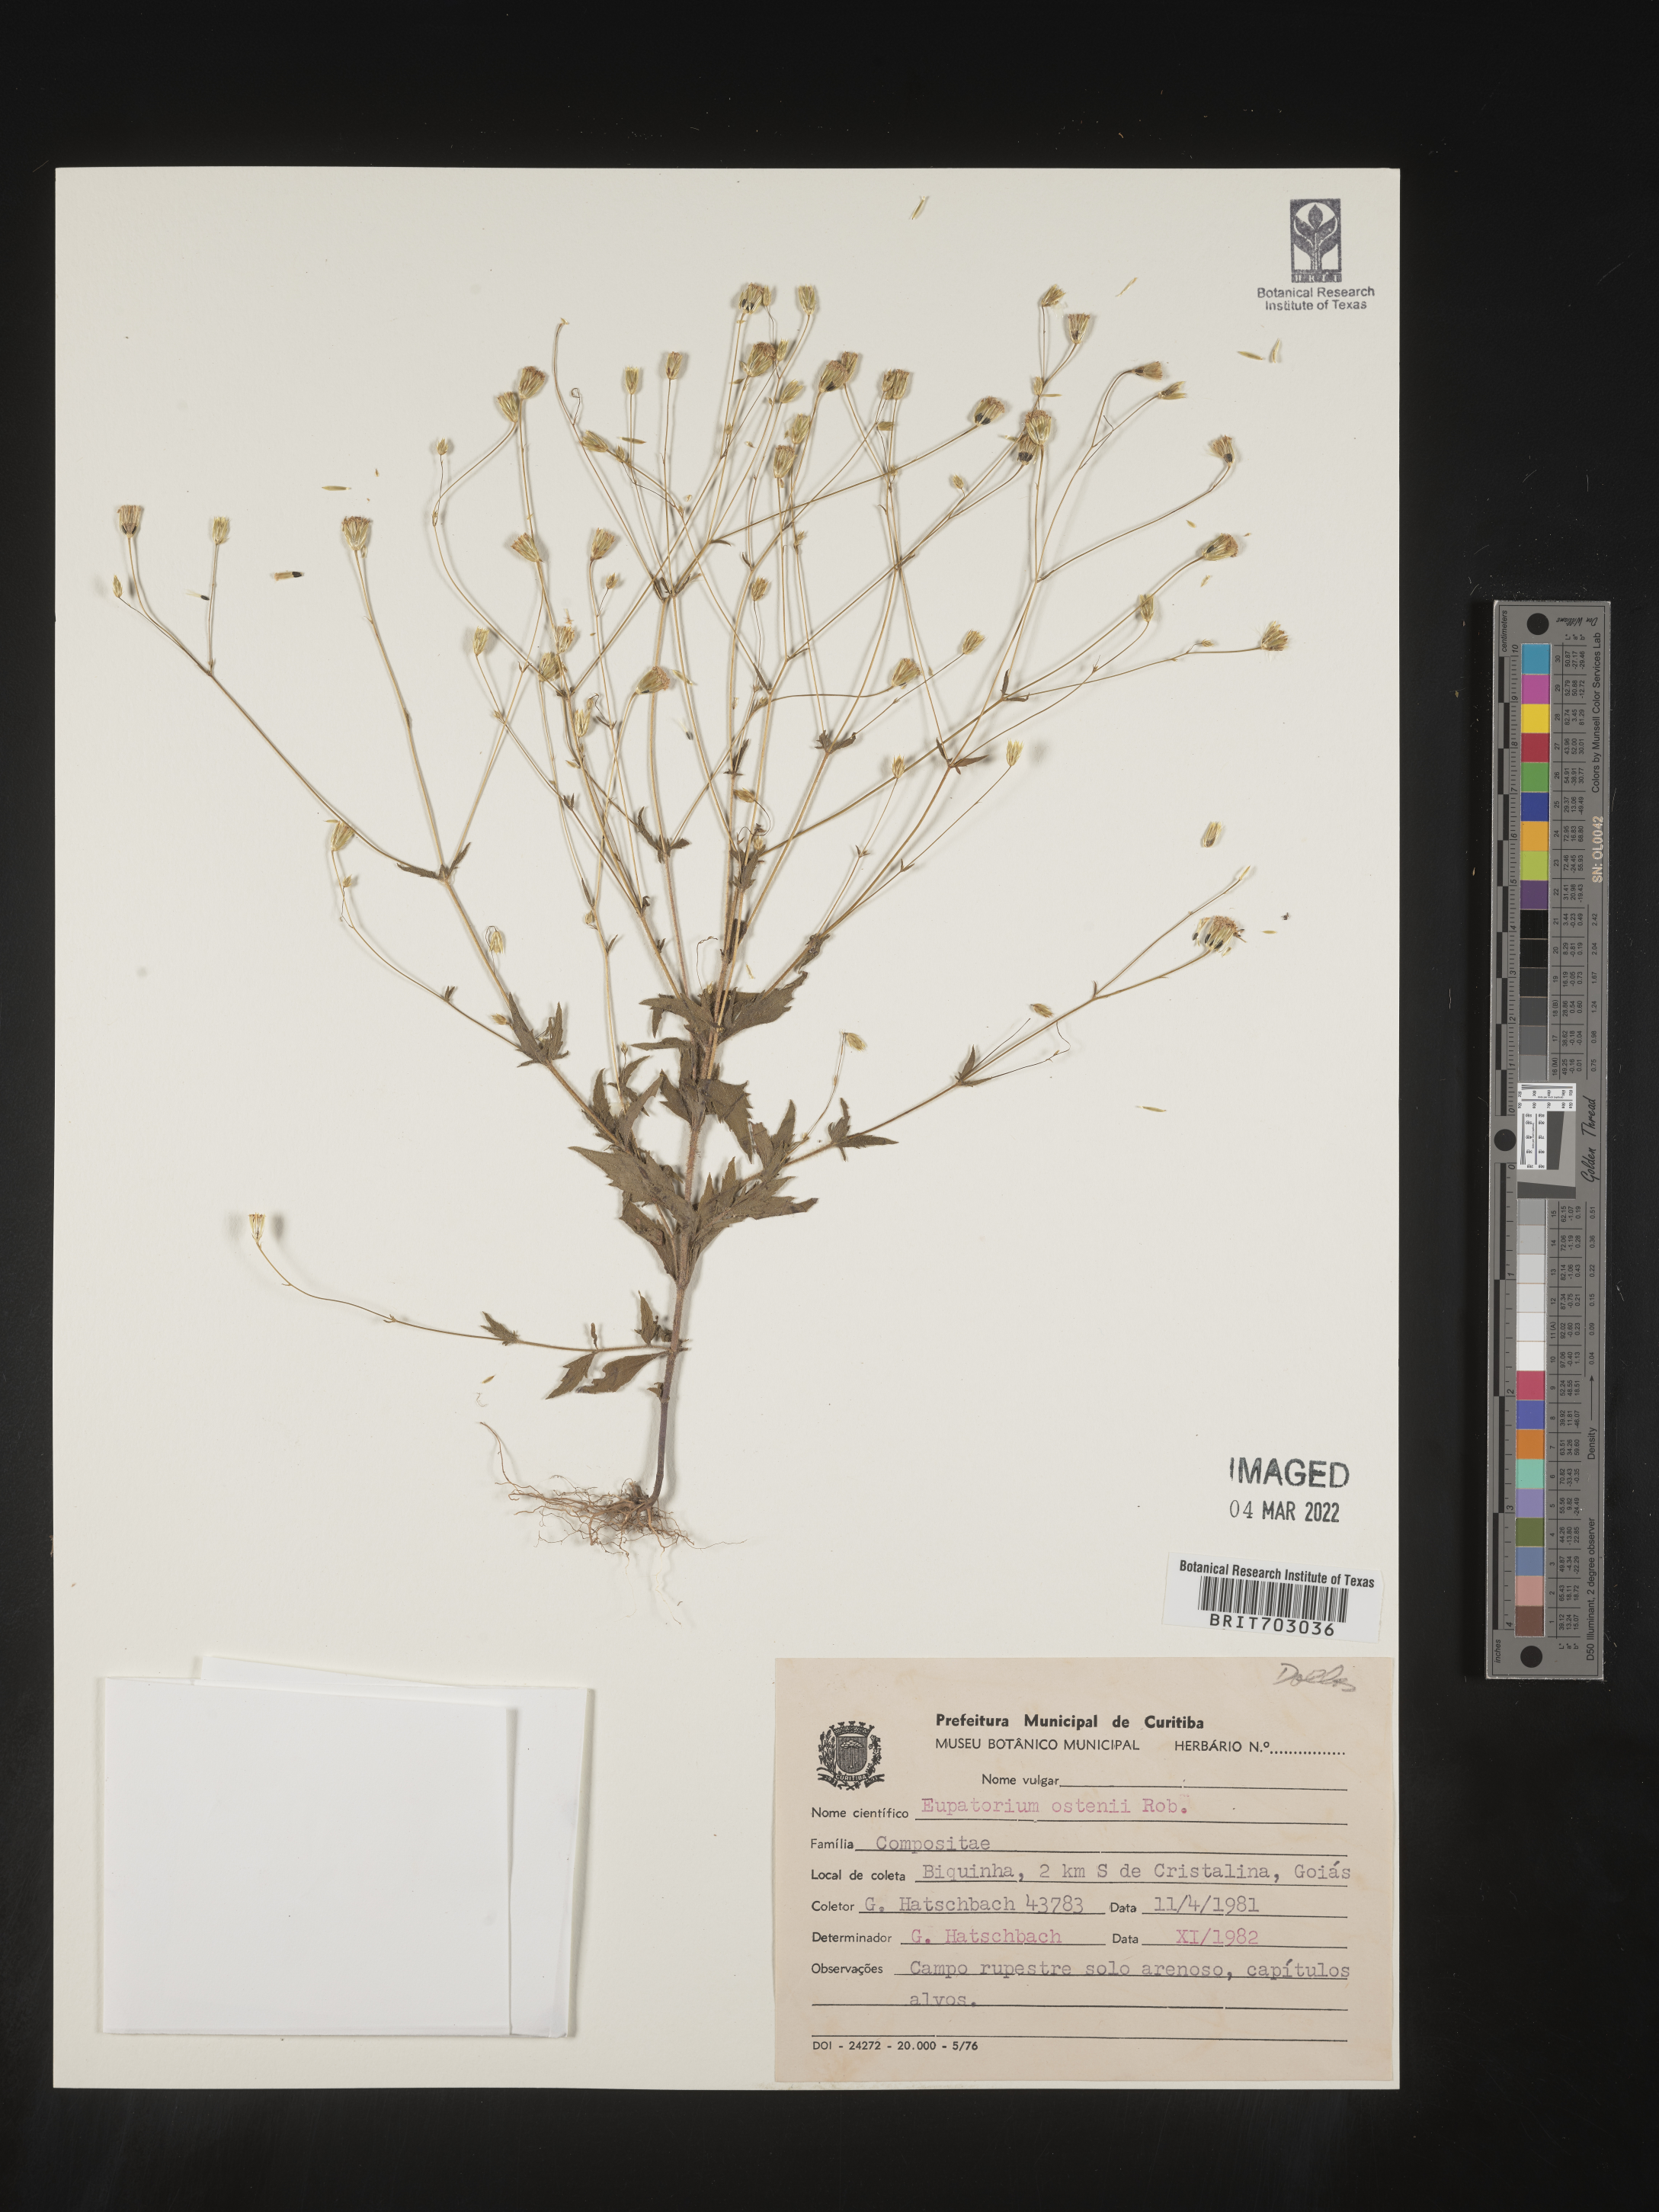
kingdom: Plantae
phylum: Tracheophyta
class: Magnoliopsida
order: Asterales
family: Asteraceae
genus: Eupatorium
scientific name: Eupatorium
